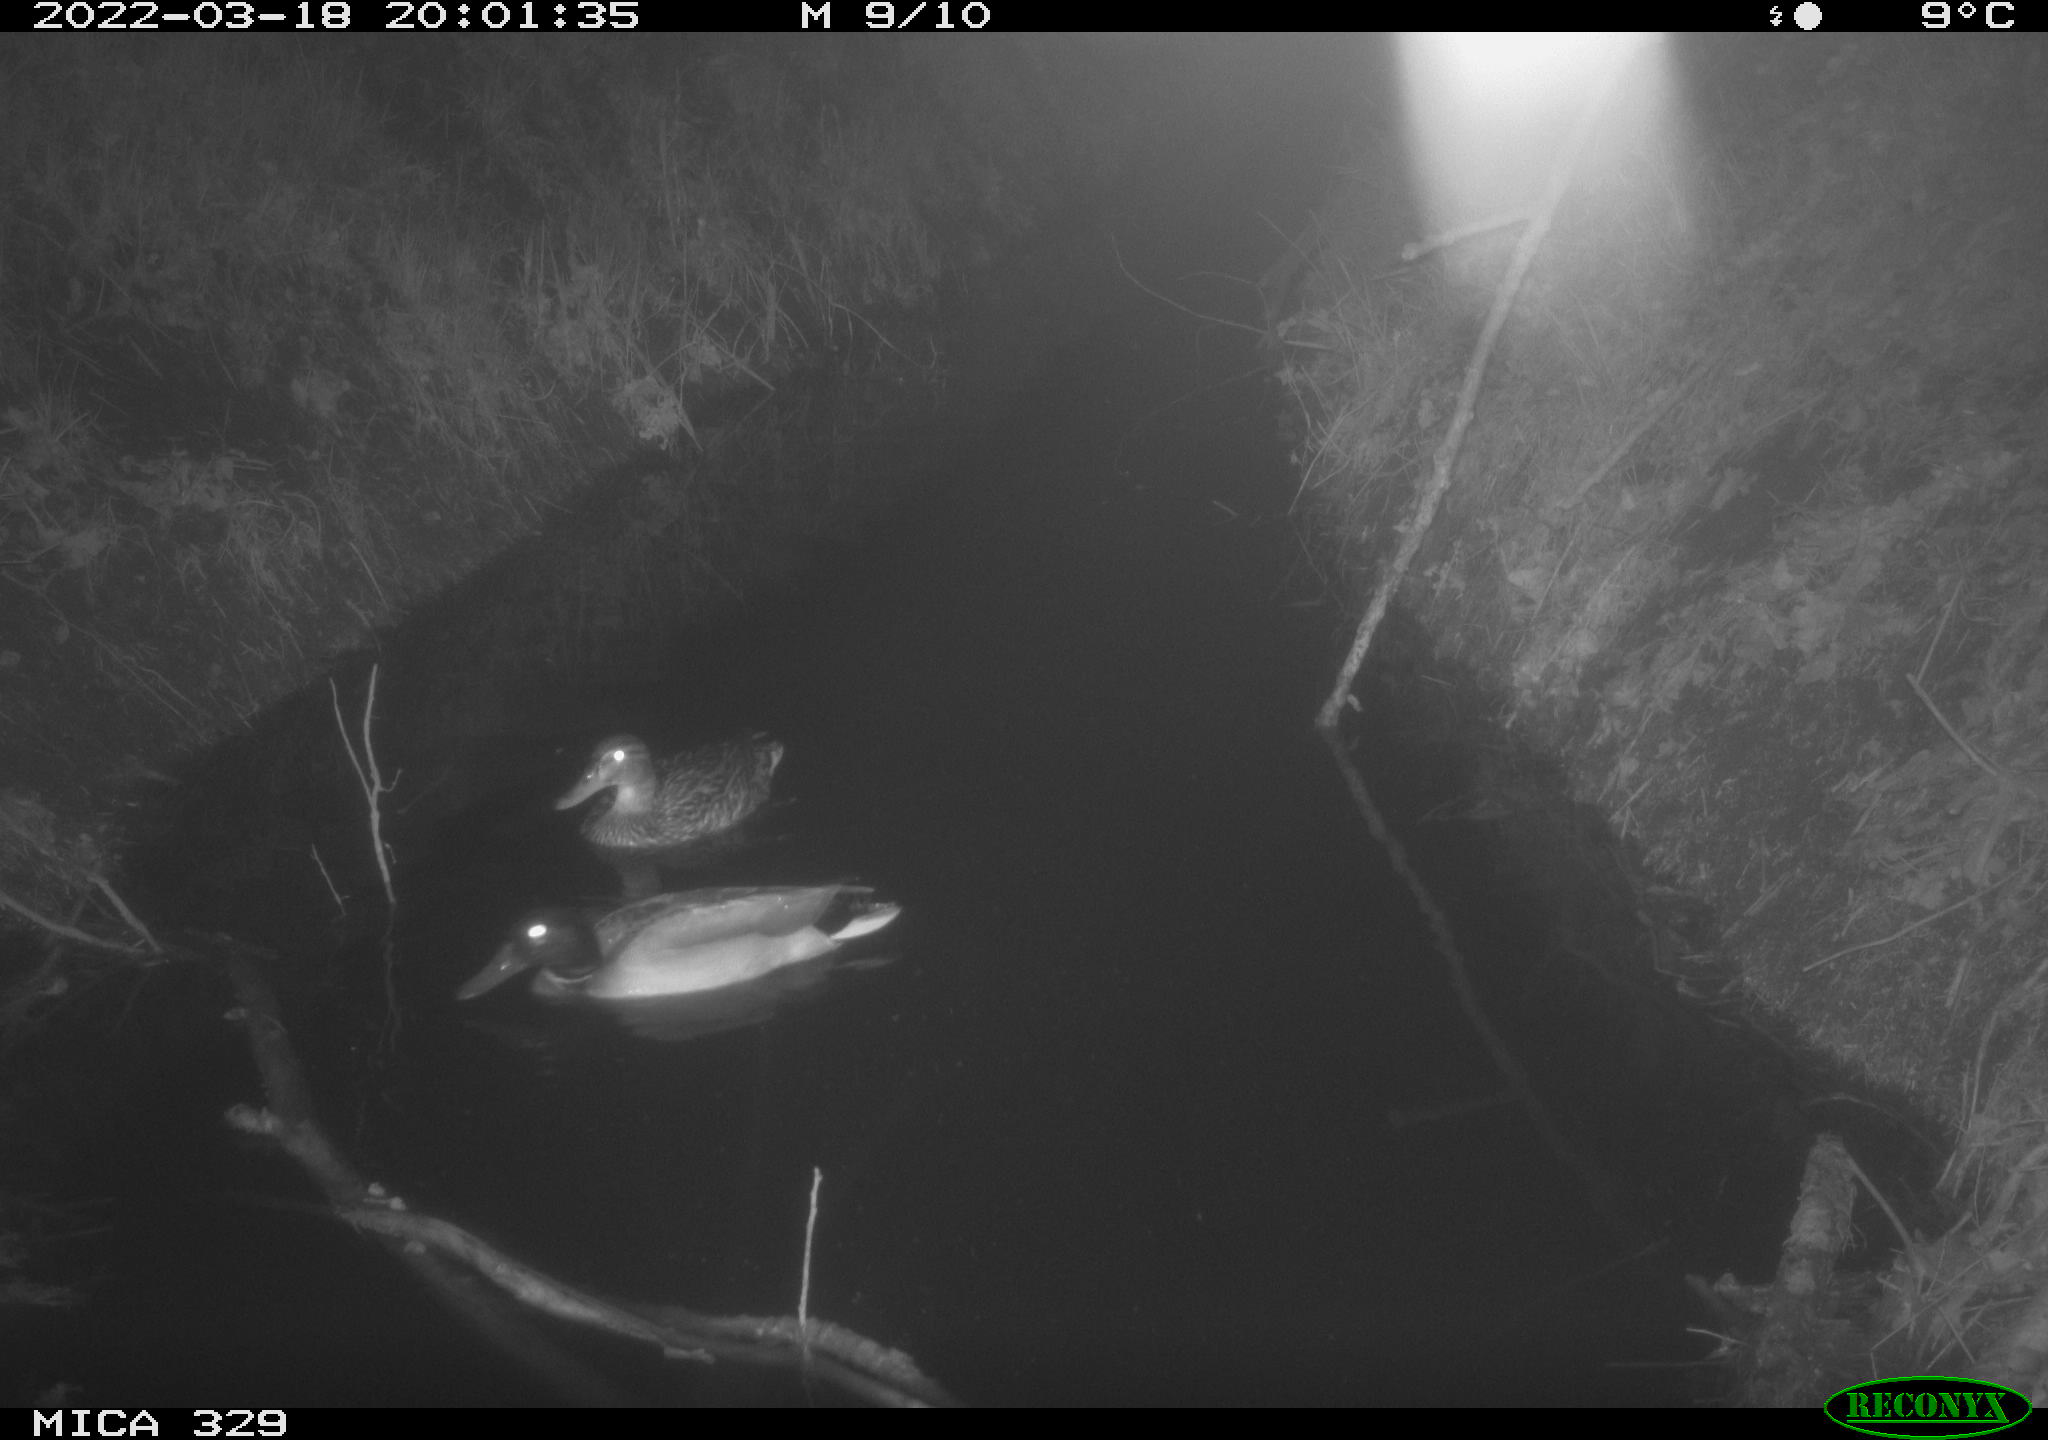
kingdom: Animalia
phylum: Chordata
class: Aves
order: Anseriformes
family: Anatidae
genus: Anas
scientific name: Anas platyrhynchos
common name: Mallard
